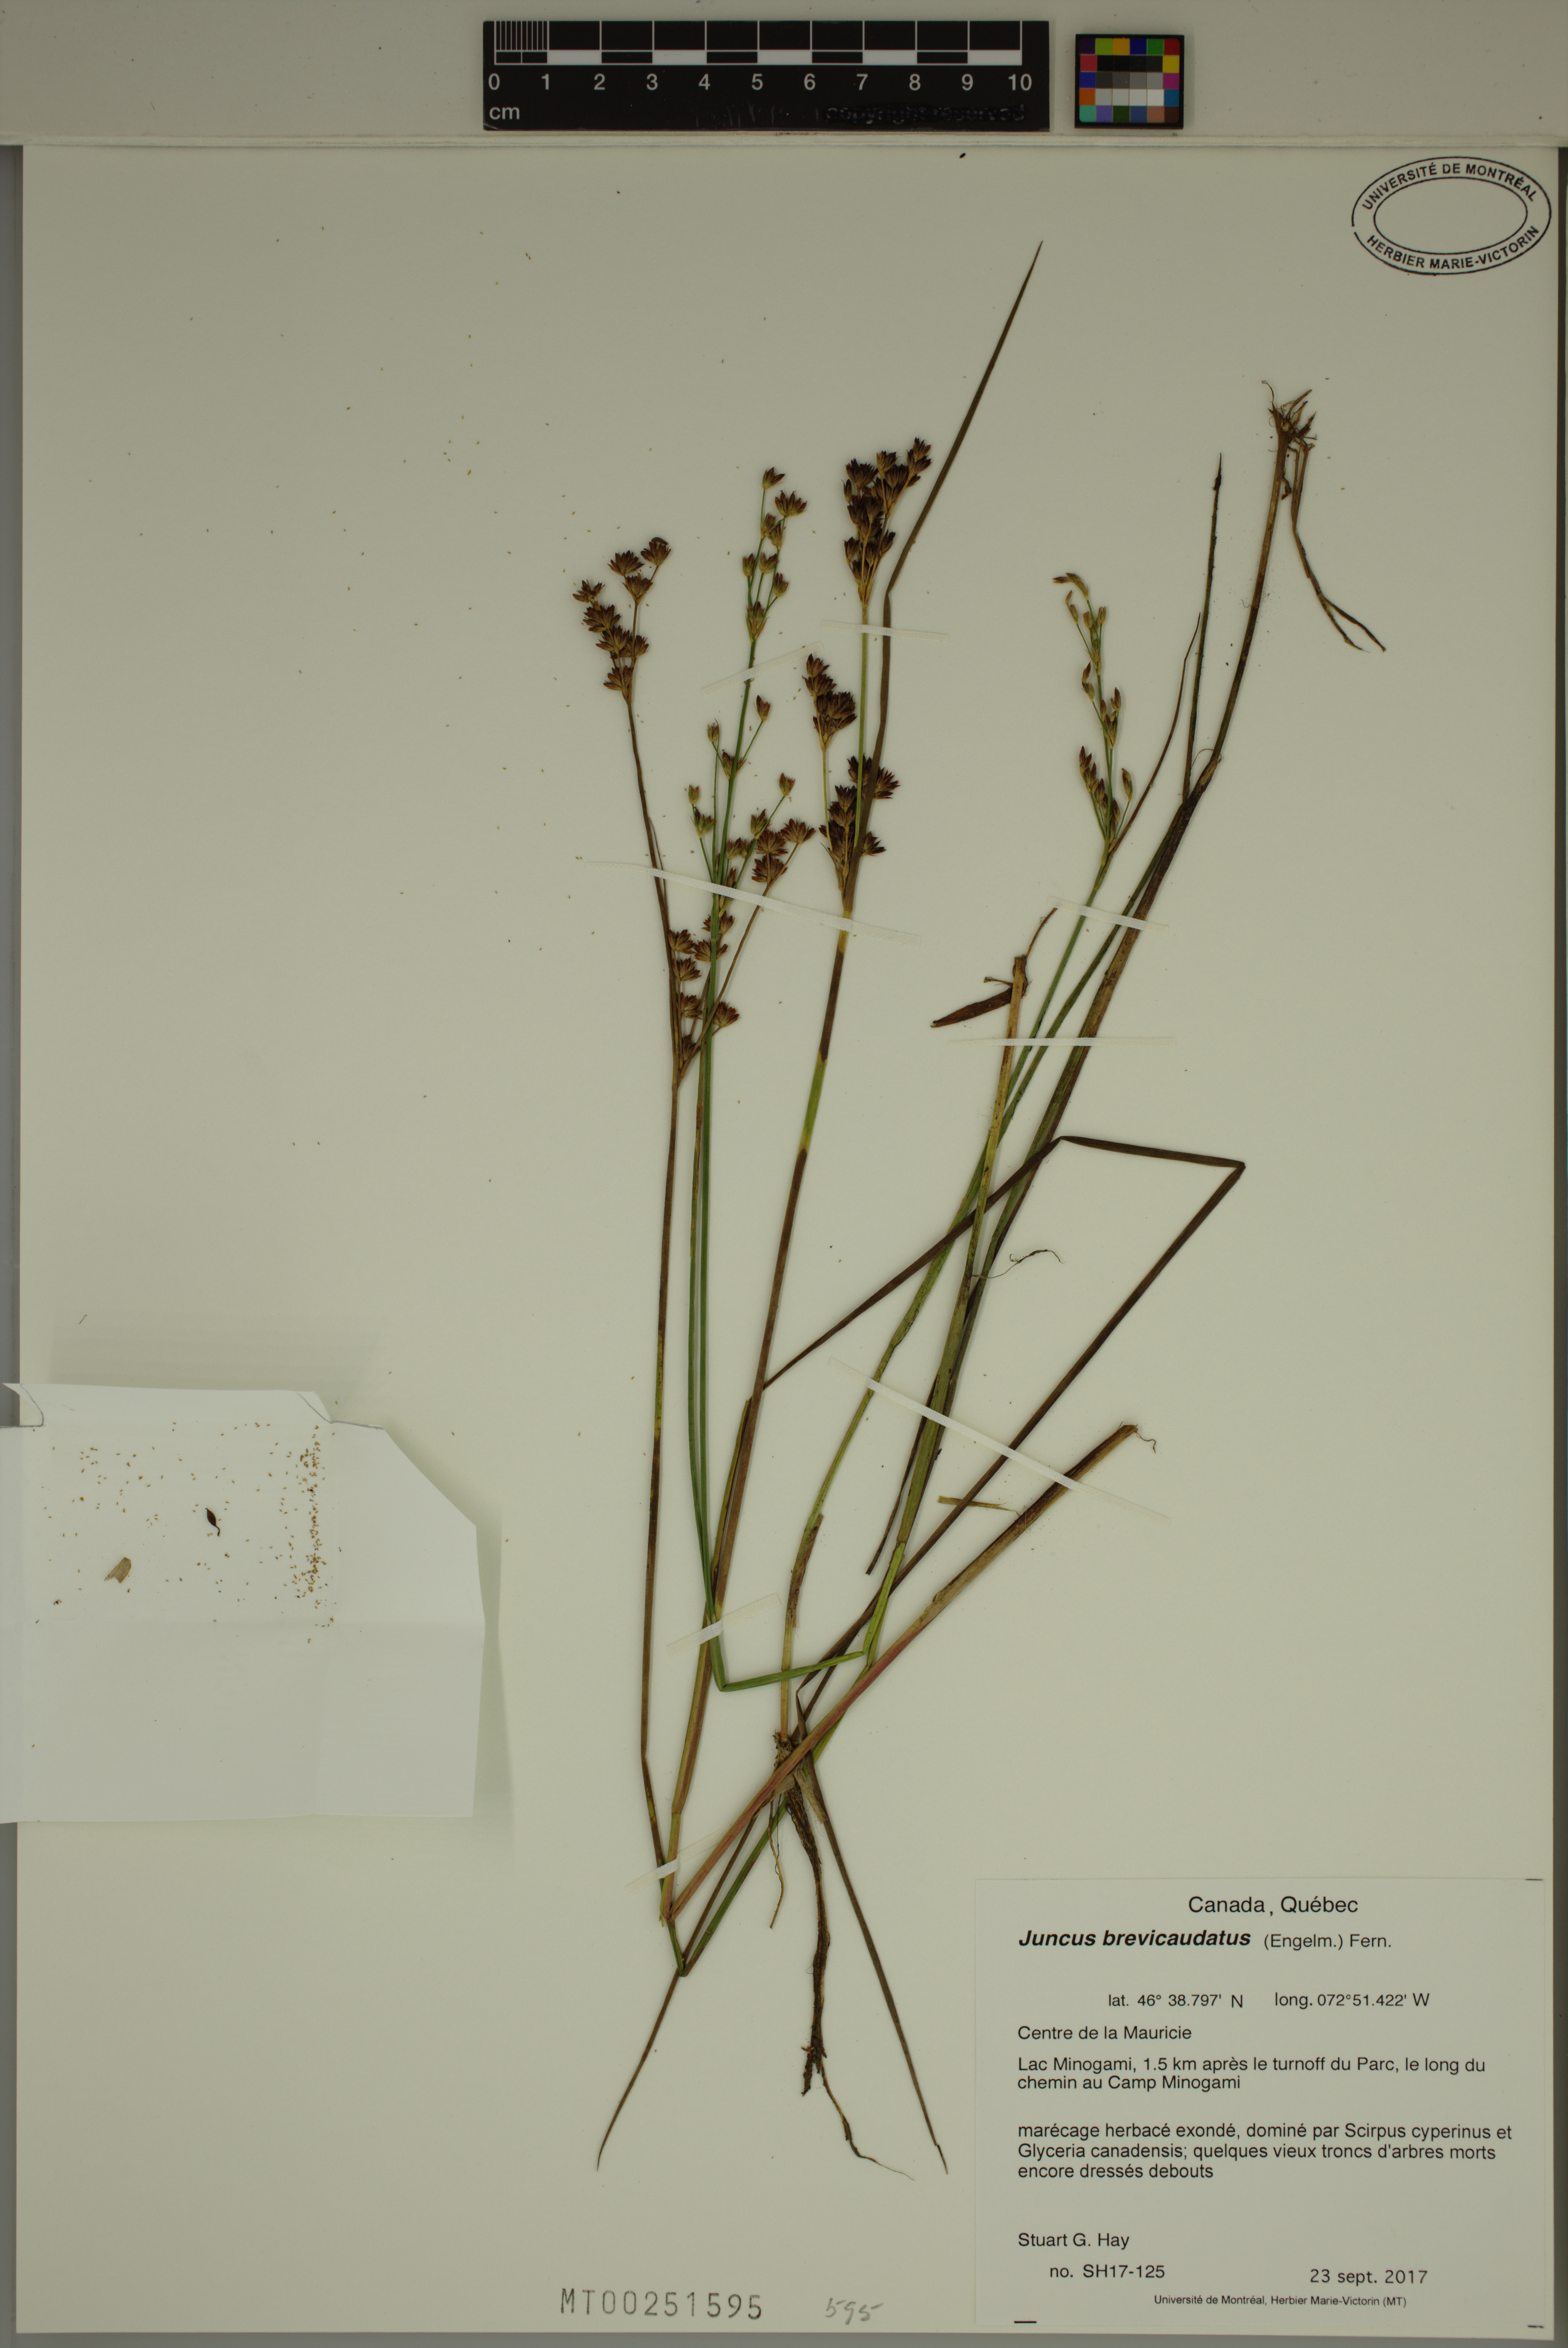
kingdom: Plantae
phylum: Tracheophyta
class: Liliopsida
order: Poales
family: Juncaceae
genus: Juncus
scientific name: Juncus brevicaudatus
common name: Narrow-panicle rush
